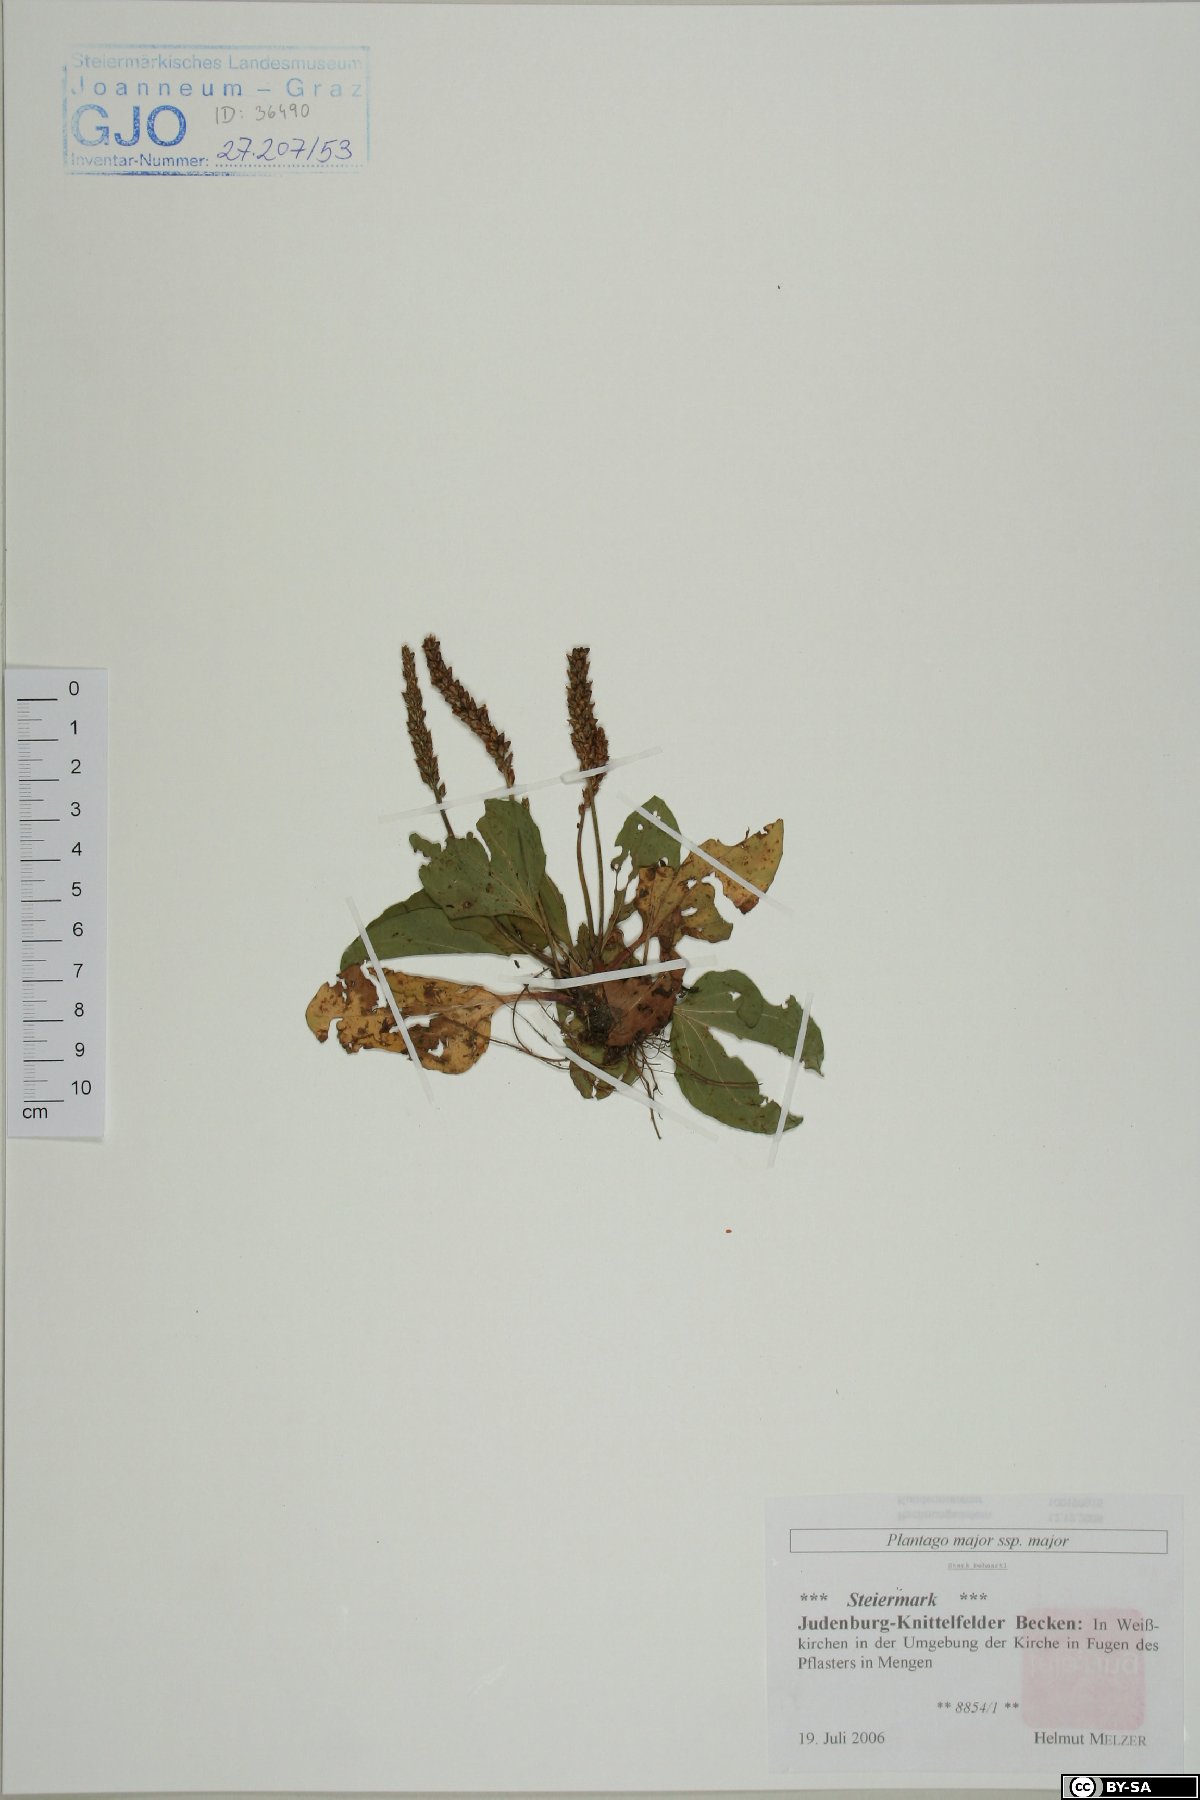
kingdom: Plantae
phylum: Tracheophyta
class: Magnoliopsida
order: Lamiales
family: Plantaginaceae
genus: Plantago
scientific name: Plantago major
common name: Common plantain
